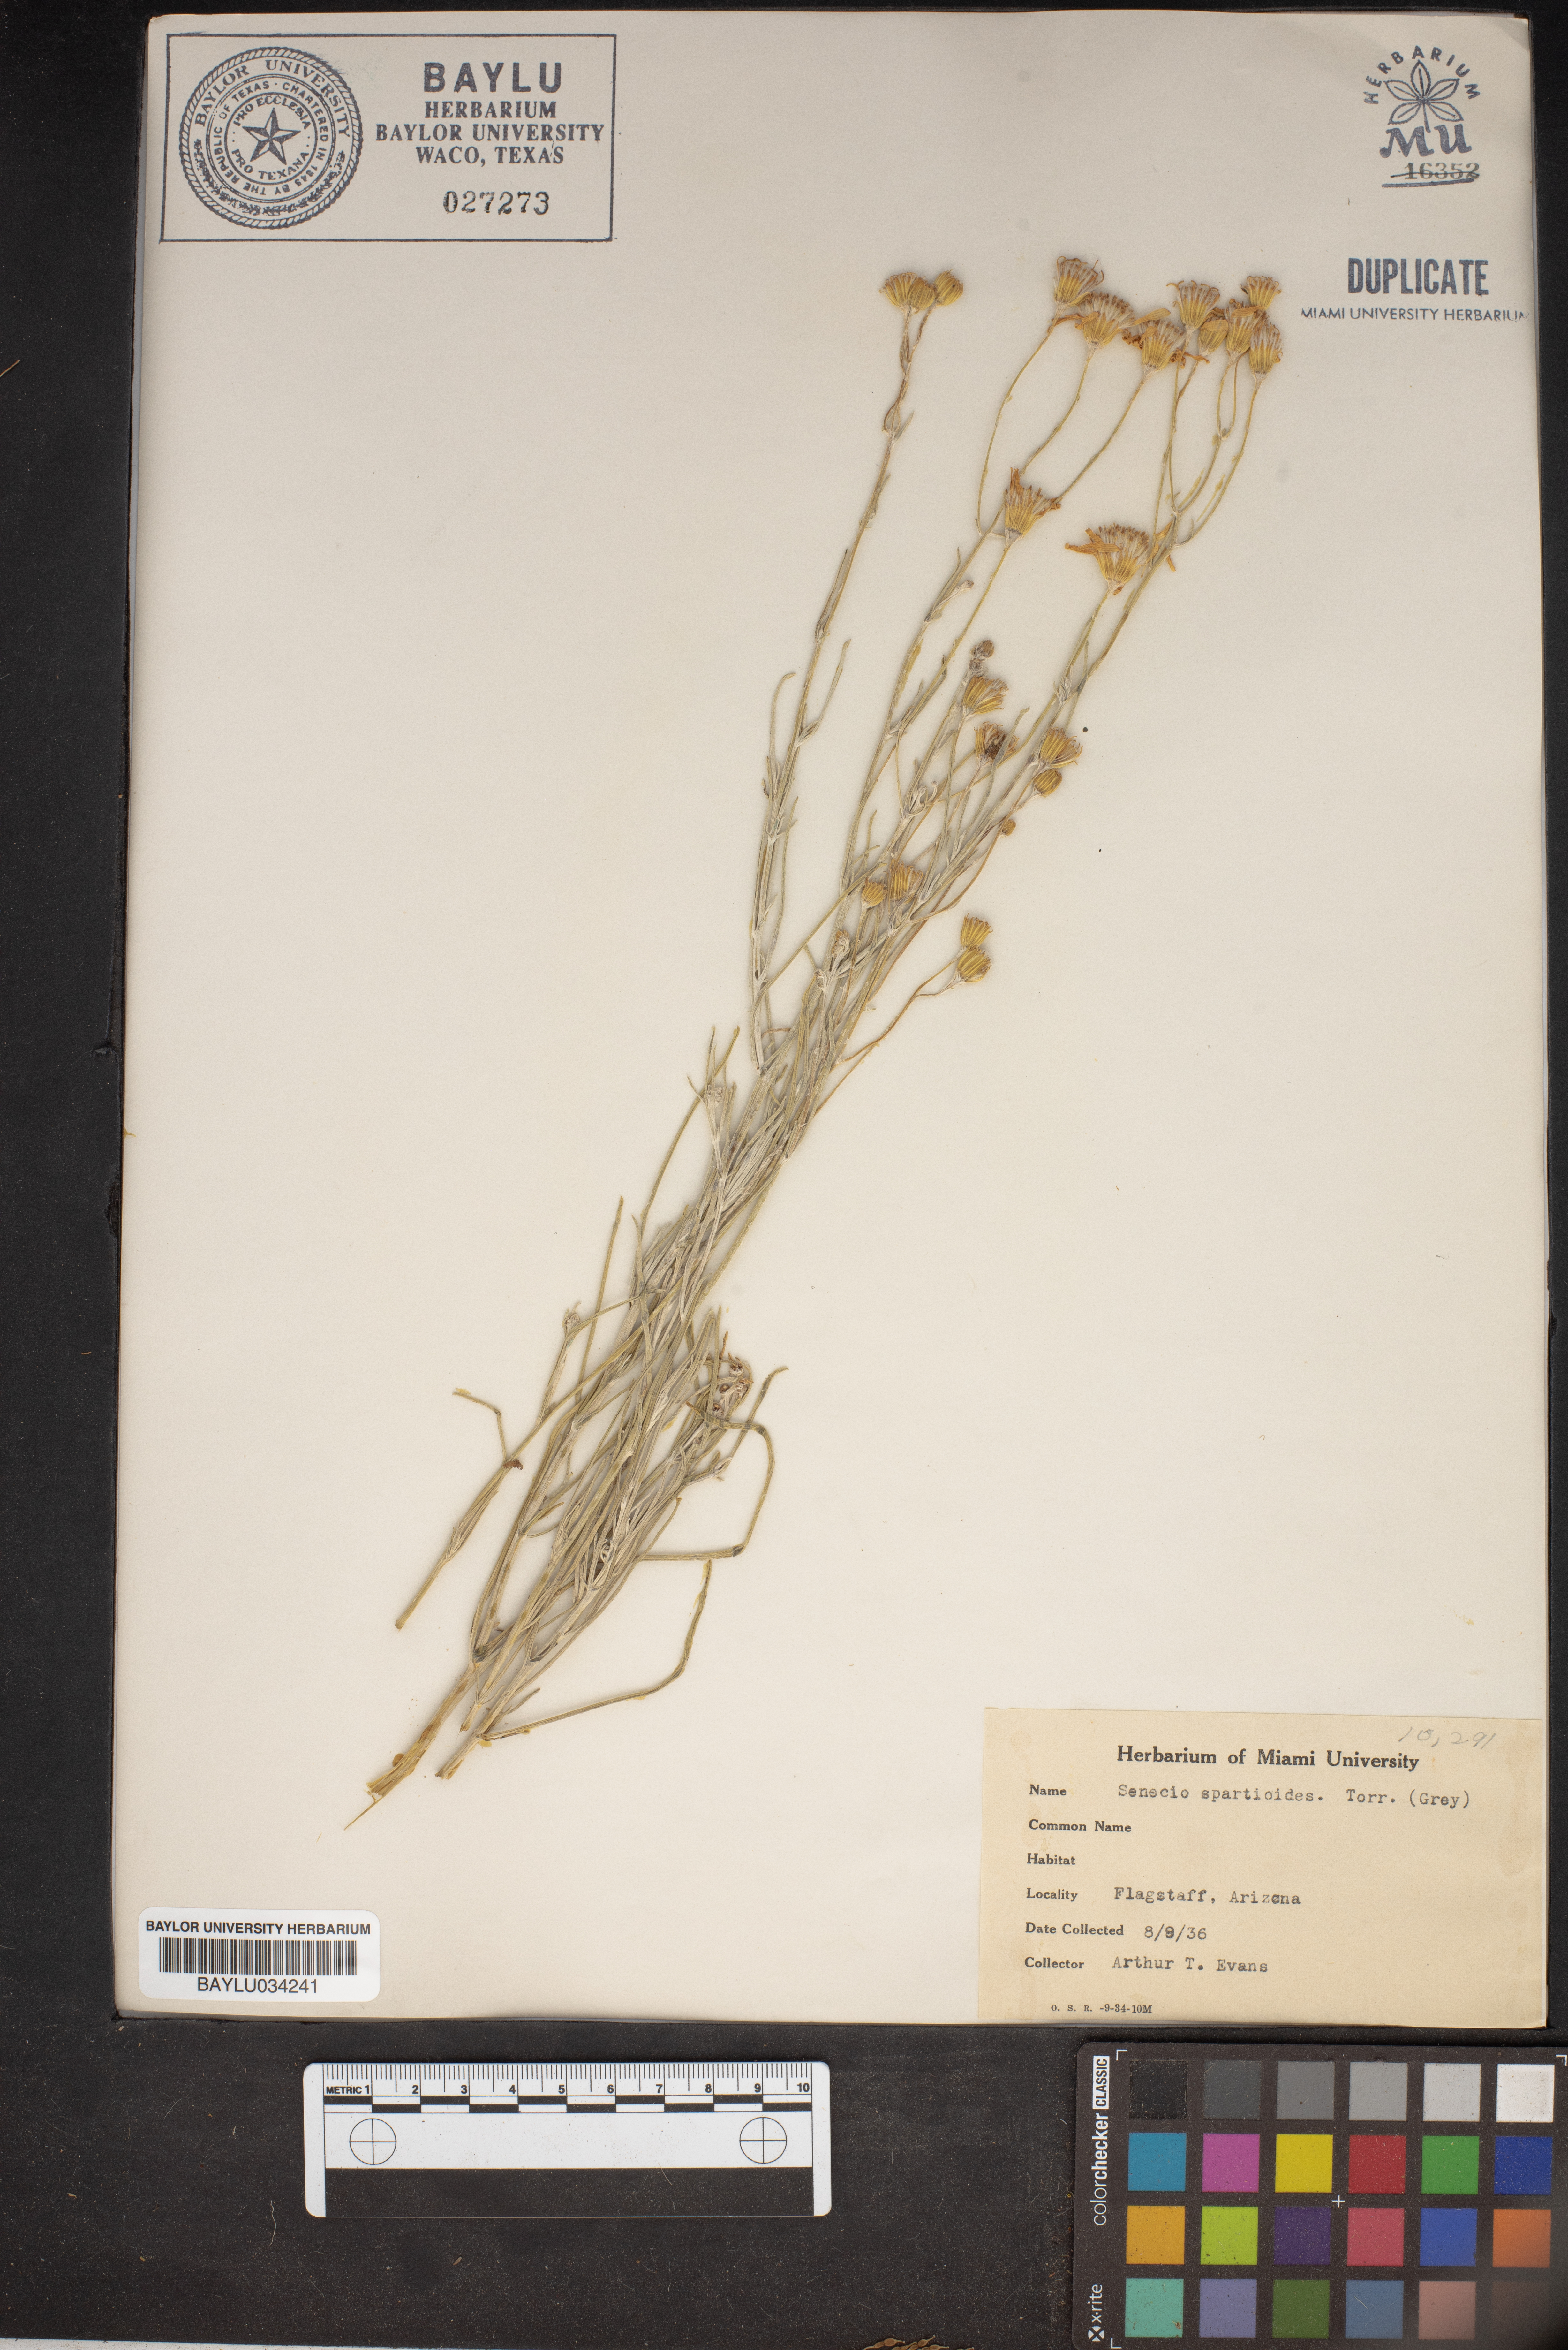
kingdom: Plantae
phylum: Tracheophyta
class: Magnoliopsida
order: Asterales
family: Asteraceae
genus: Senecio
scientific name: Senecio spartioides
